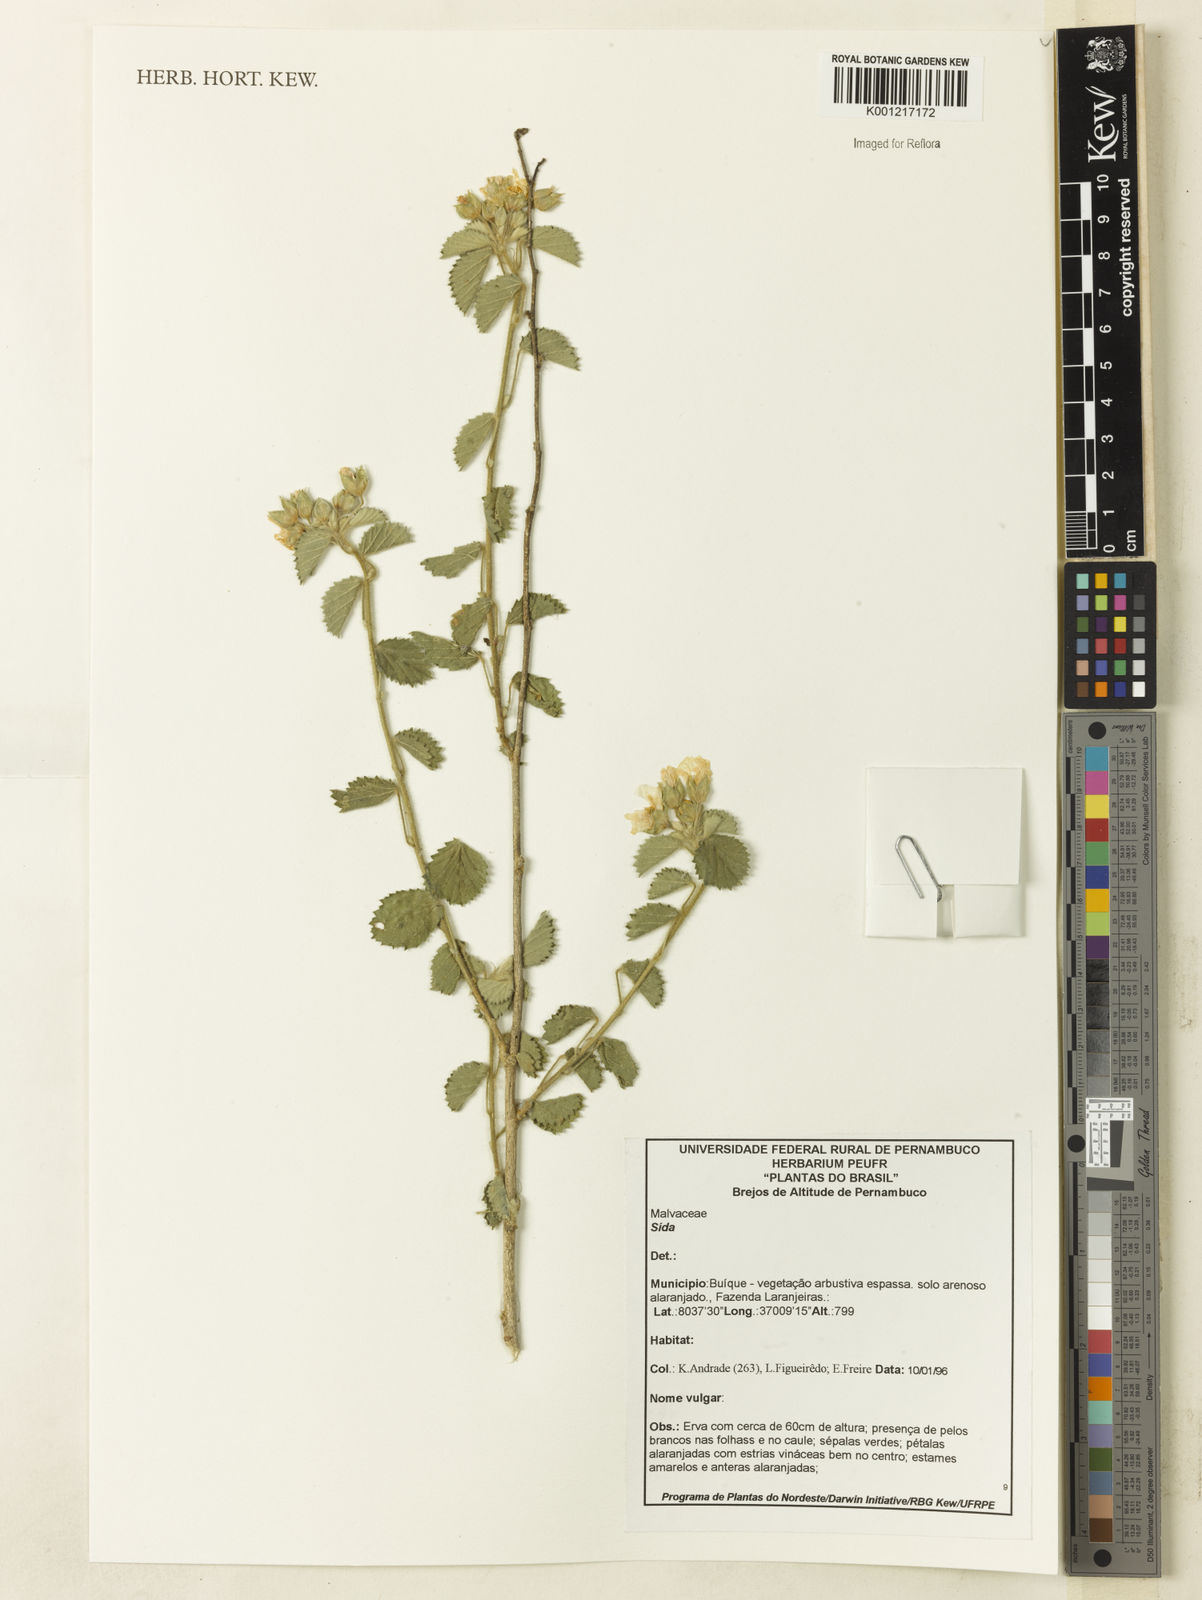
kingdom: Plantae
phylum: Tracheophyta
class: Magnoliopsida
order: Malvales
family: Malvaceae
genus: Sida
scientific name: Sida
